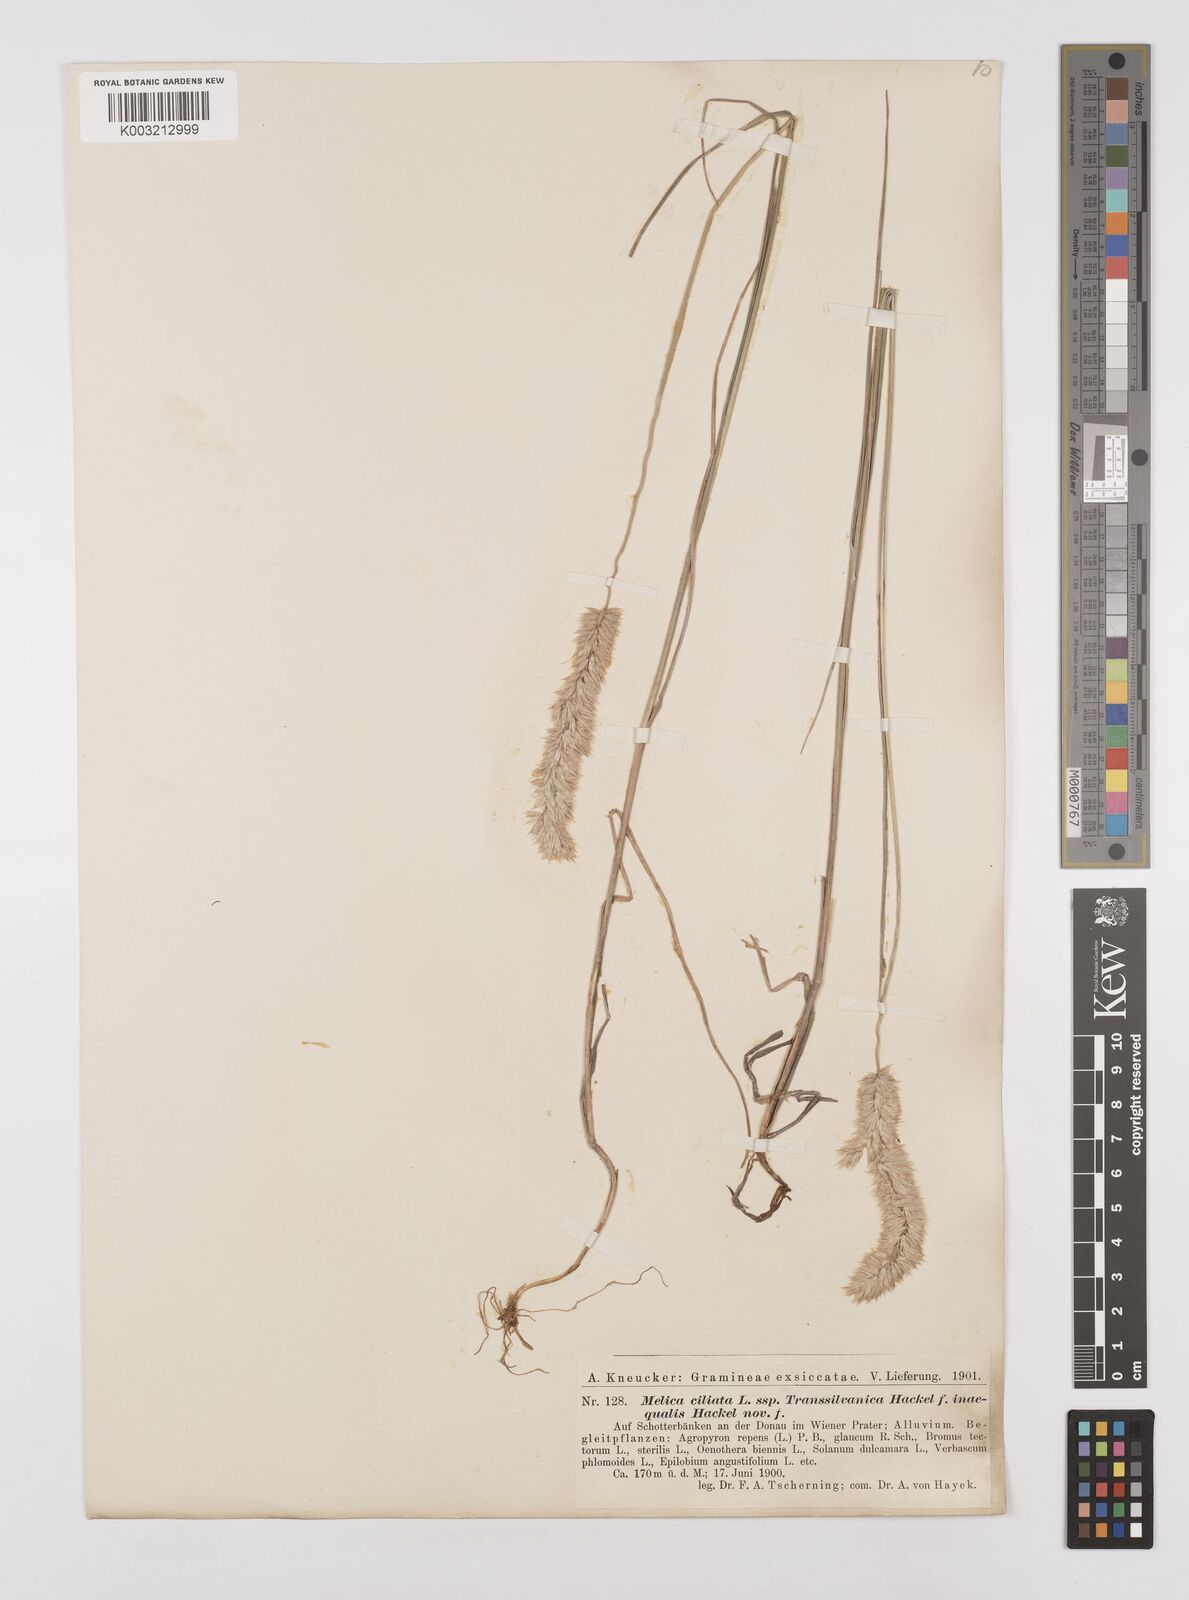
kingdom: Plantae
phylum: Tracheophyta
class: Liliopsida
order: Poales
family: Poaceae
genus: Melica
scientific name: Melica transsilvanica
